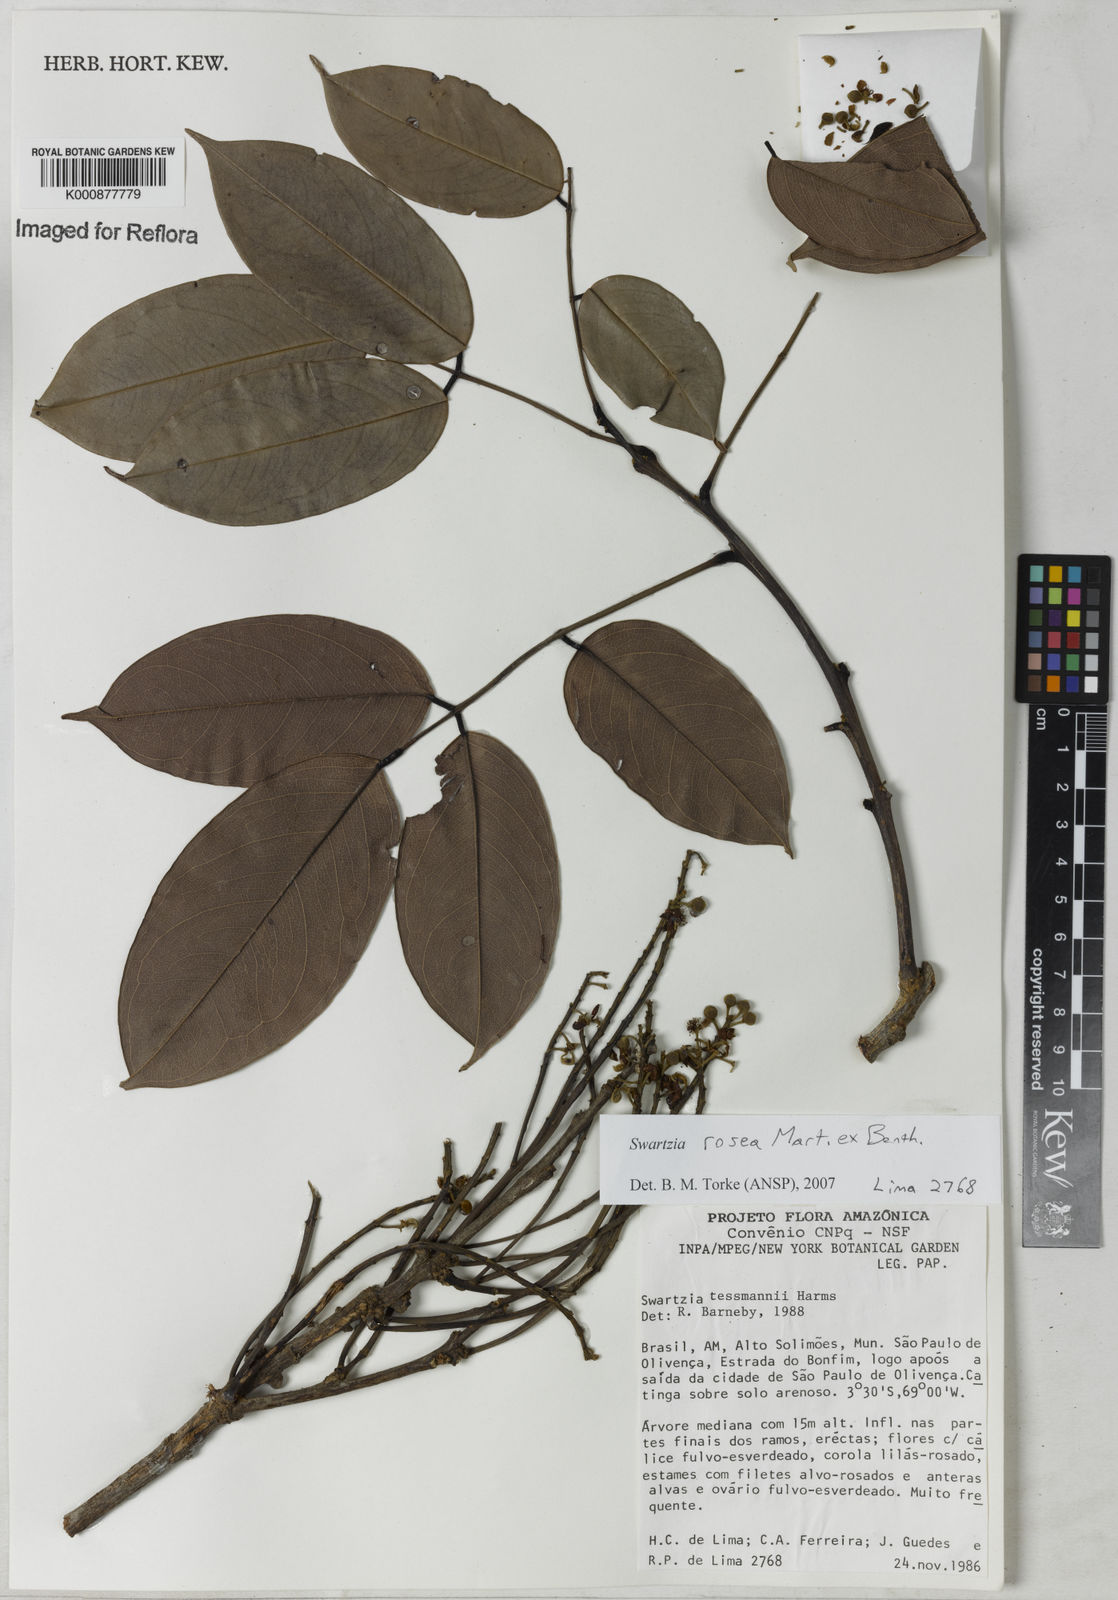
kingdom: Plantae
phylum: Tracheophyta
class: Magnoliopsida
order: Fabales
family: Fabaceae
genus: Swartzia
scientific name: Swartzia rosea
